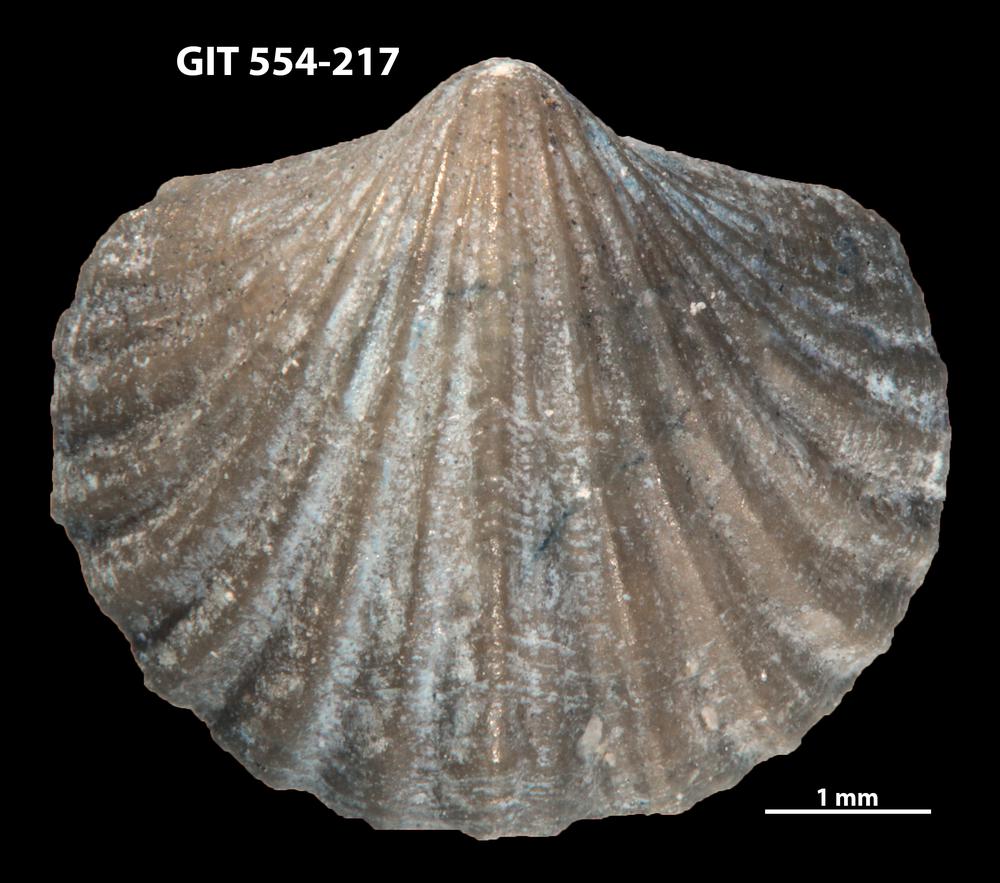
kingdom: Animalia
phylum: Brachiopoda
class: Rhynchonellata
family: Dalmanellidae
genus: Ravozetina
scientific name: Ravozetina
